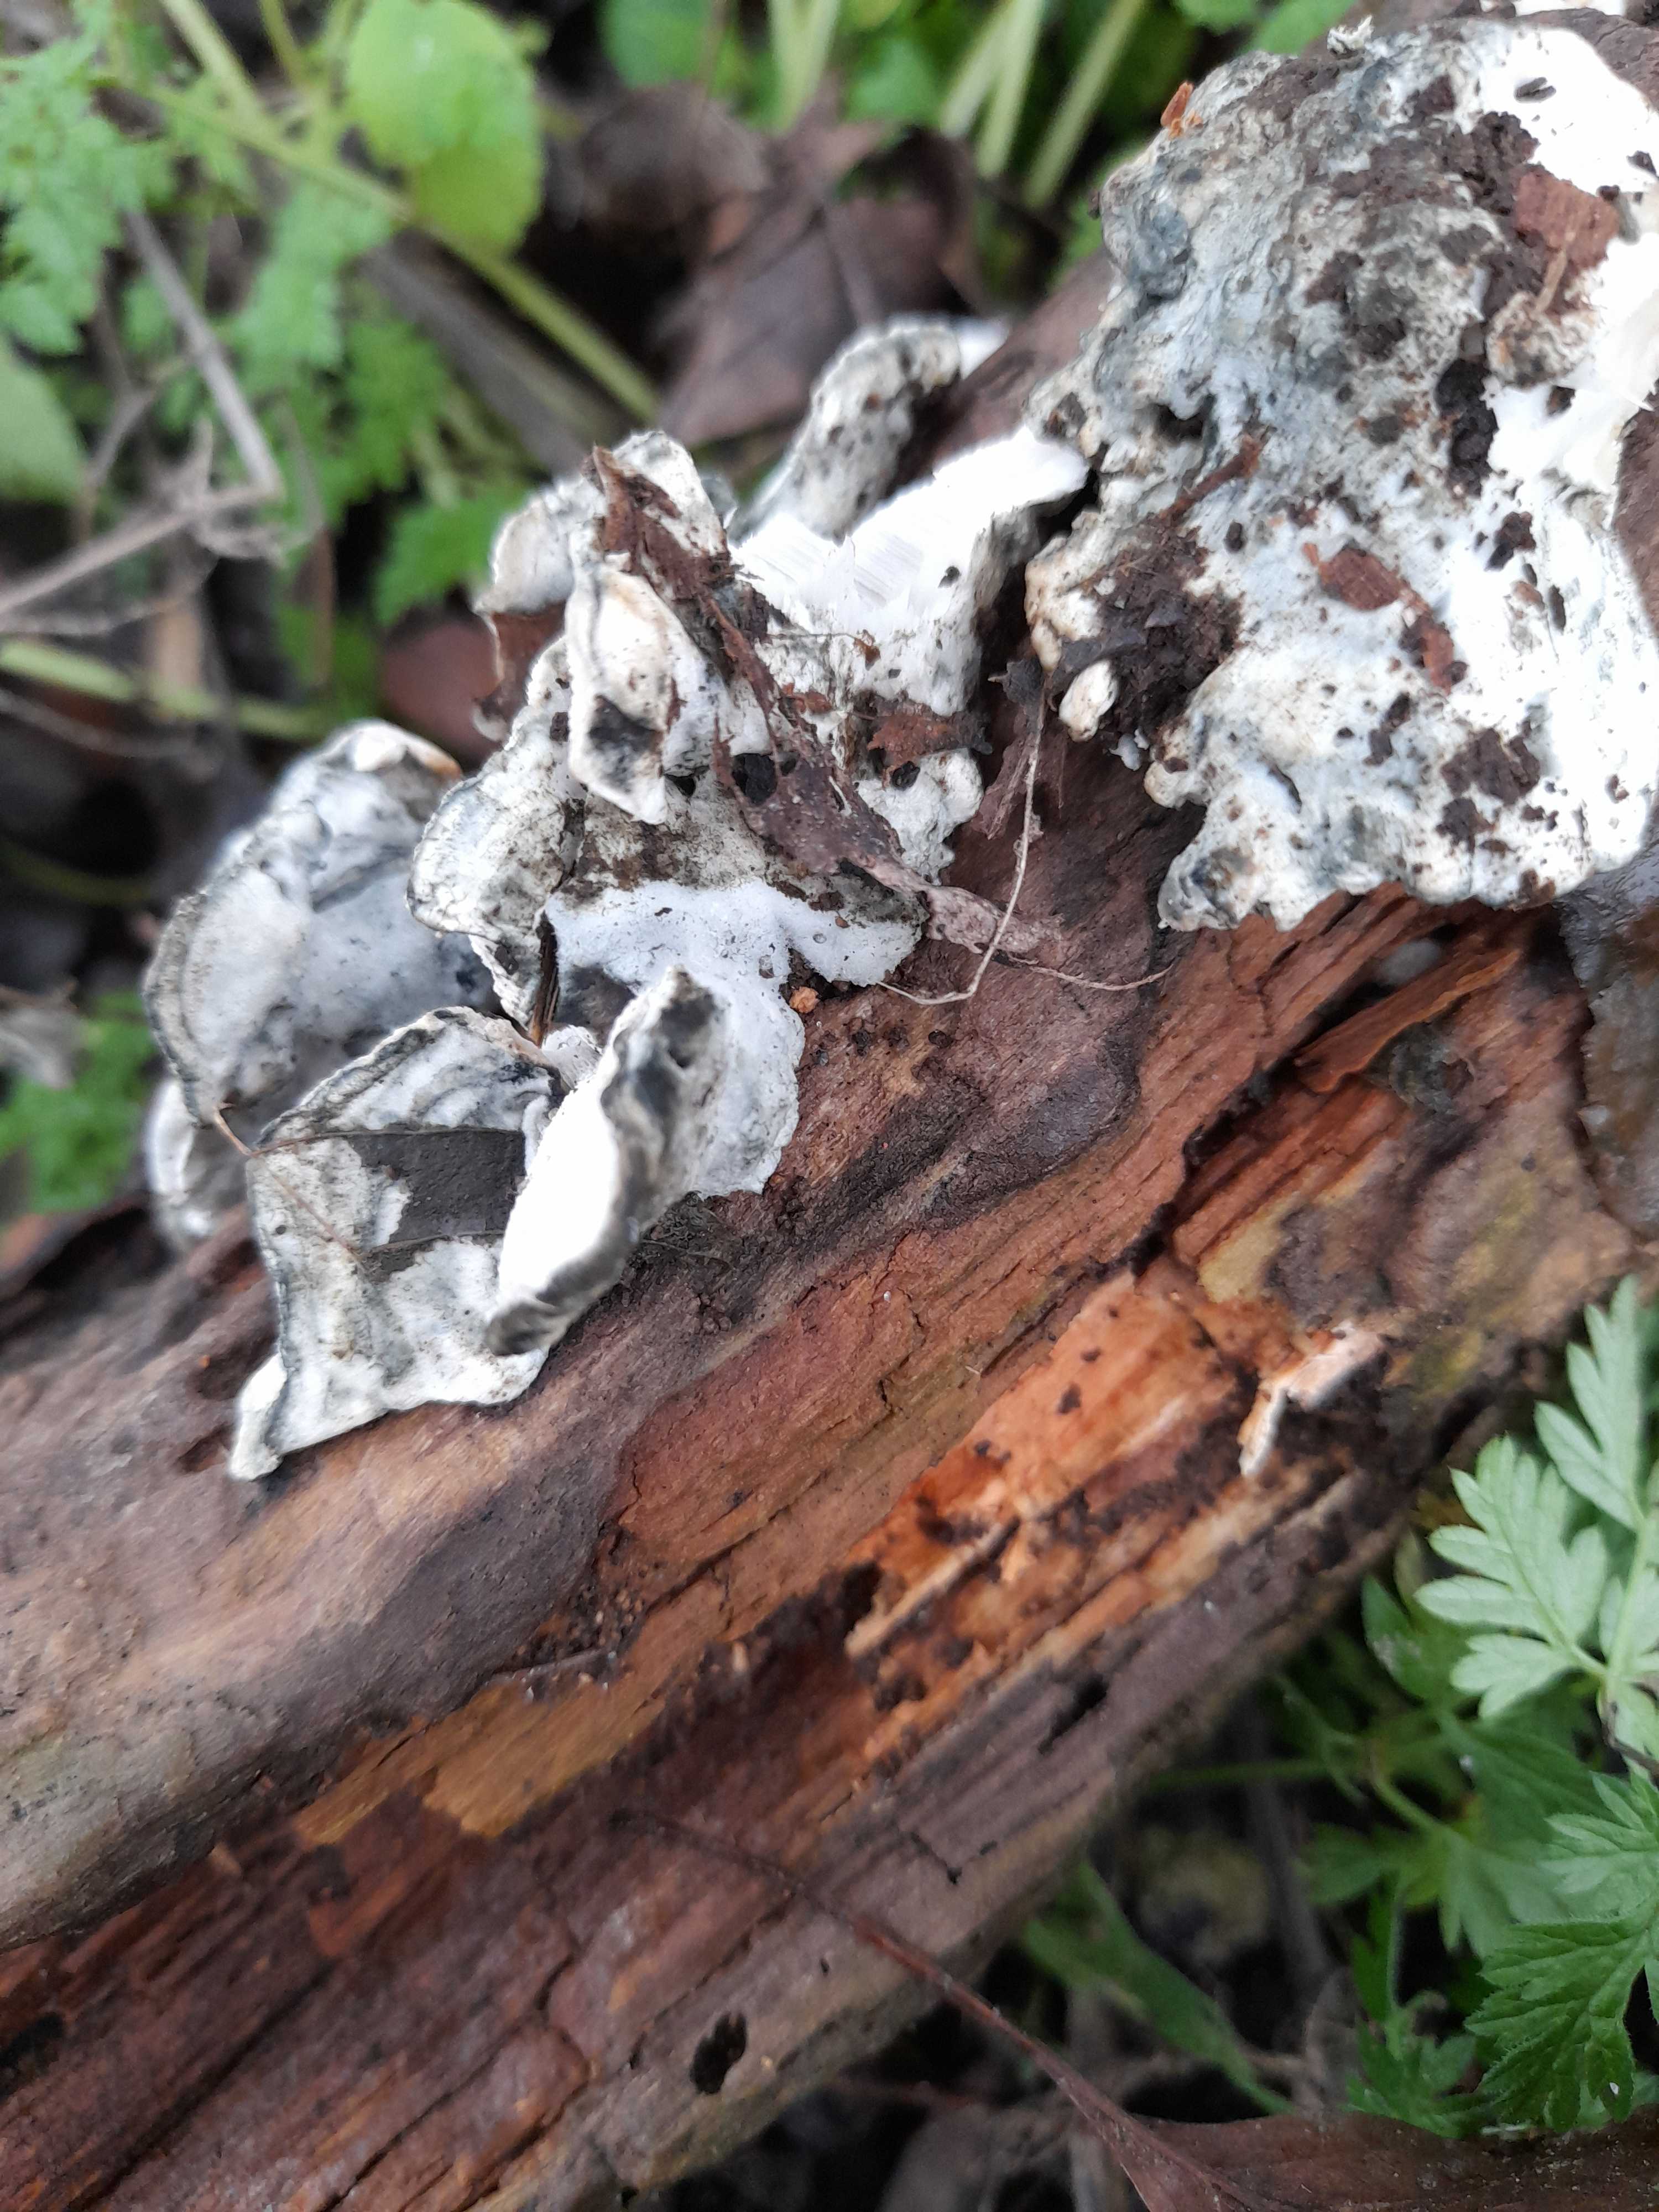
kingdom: Fungi
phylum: Basidiomycota
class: Agaricomycetes
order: Polyporales
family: Polyporaceae
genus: Cyanosporus
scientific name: Cyanosporus caesius
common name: blålig kødporesvamp
